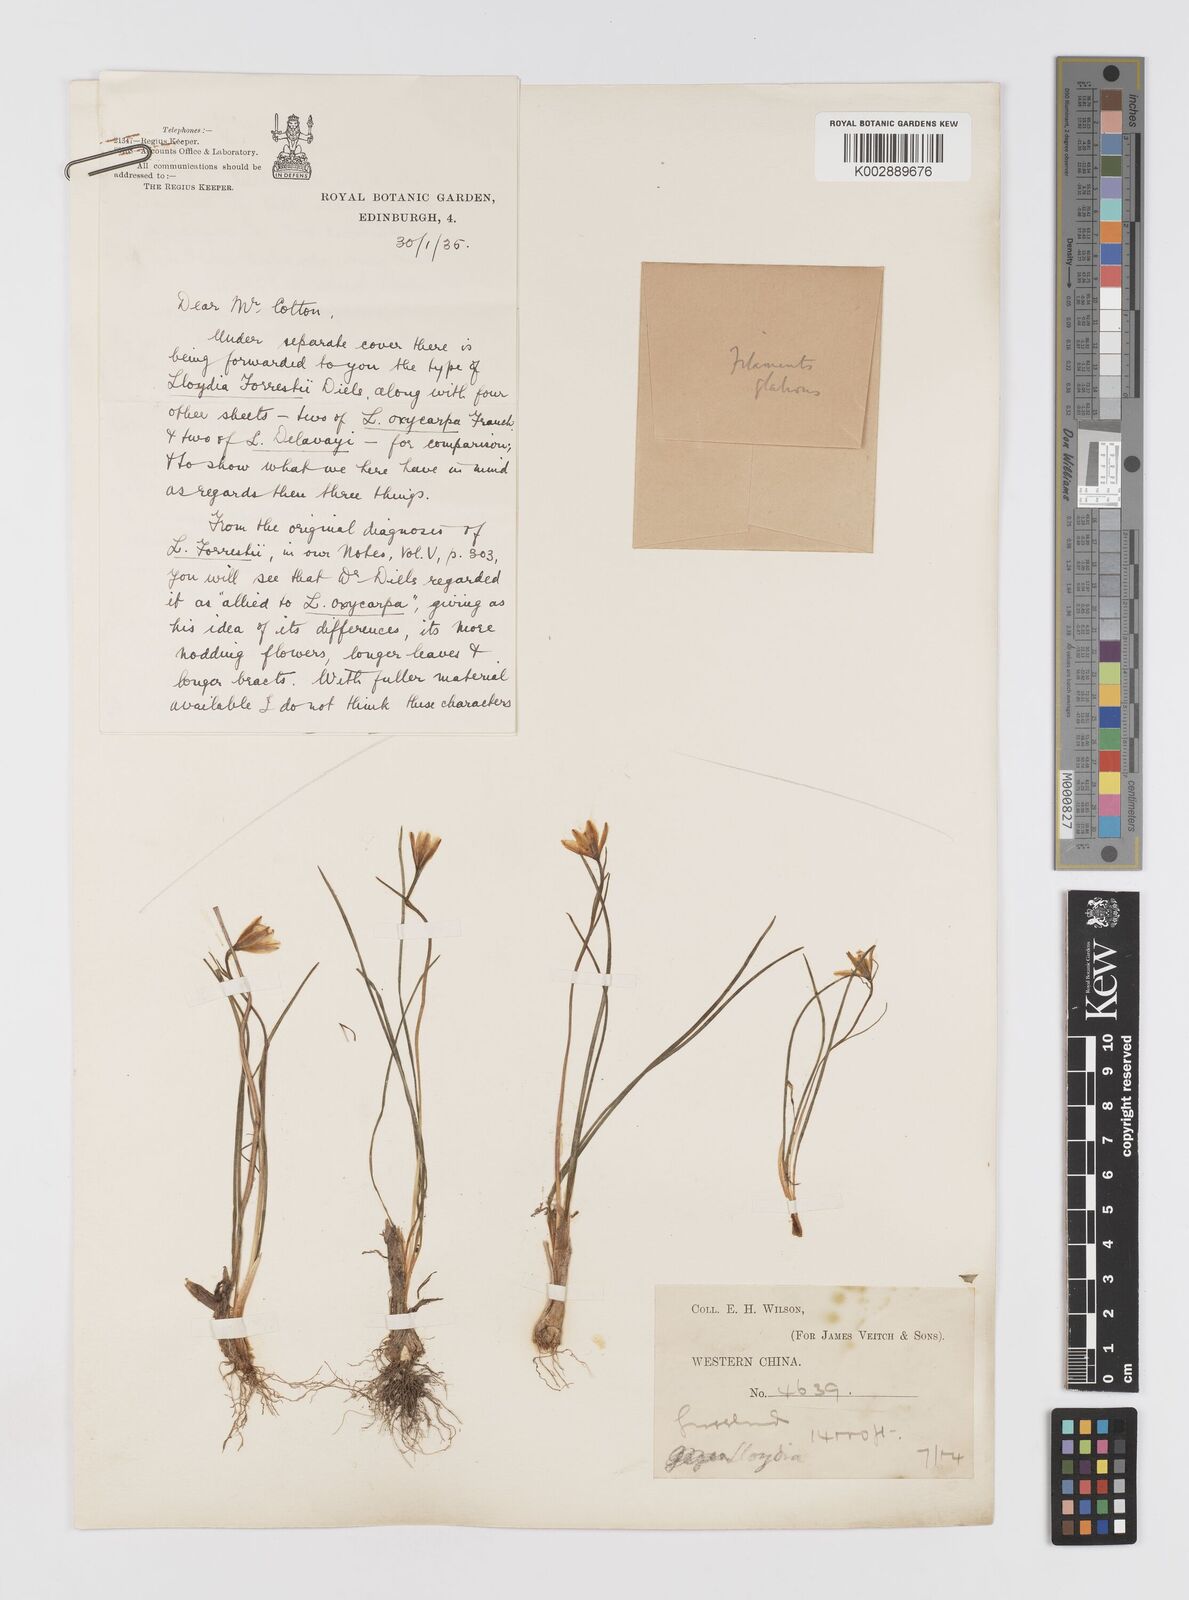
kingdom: Plantae
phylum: Tracheophyta
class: Liliopsida
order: Liliales
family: Liliaceae
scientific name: Liliaceae
